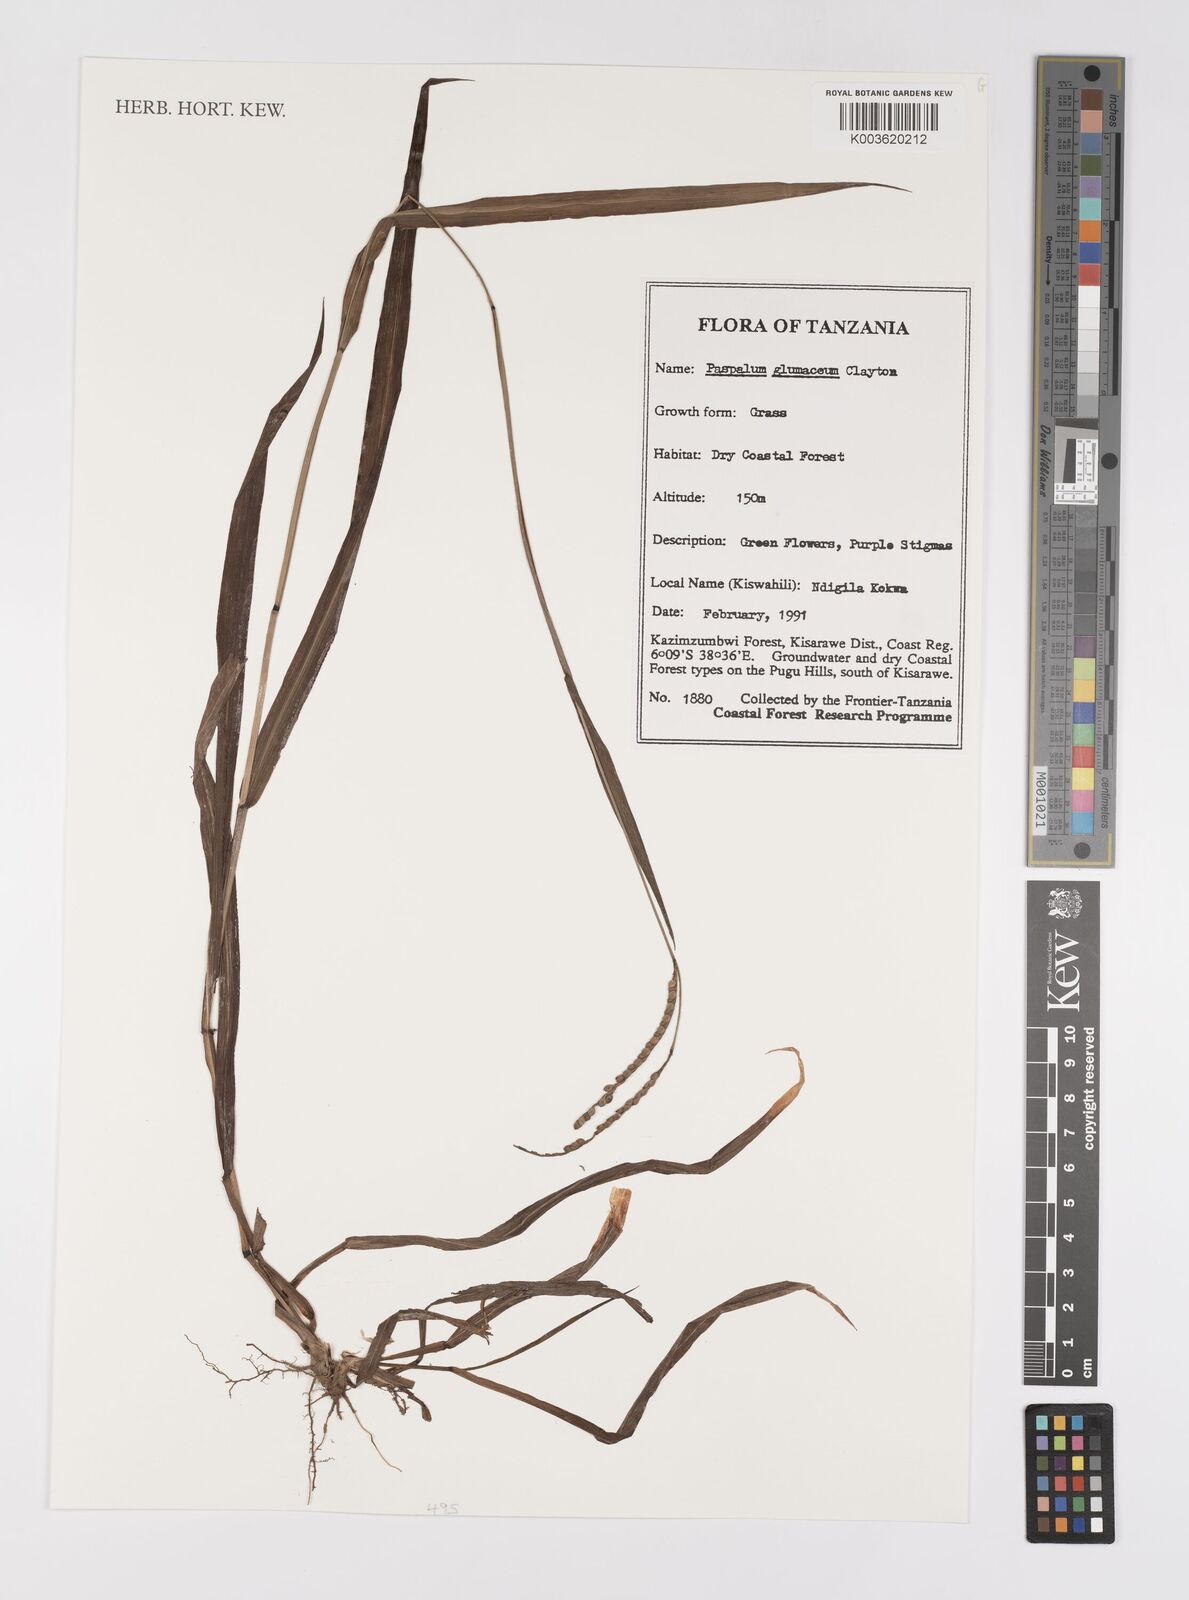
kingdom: Plantae
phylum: Tracheophyta
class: Liliopsida
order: Poales
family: Poaceae
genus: Paspalum
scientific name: Paspalum glumaceum
